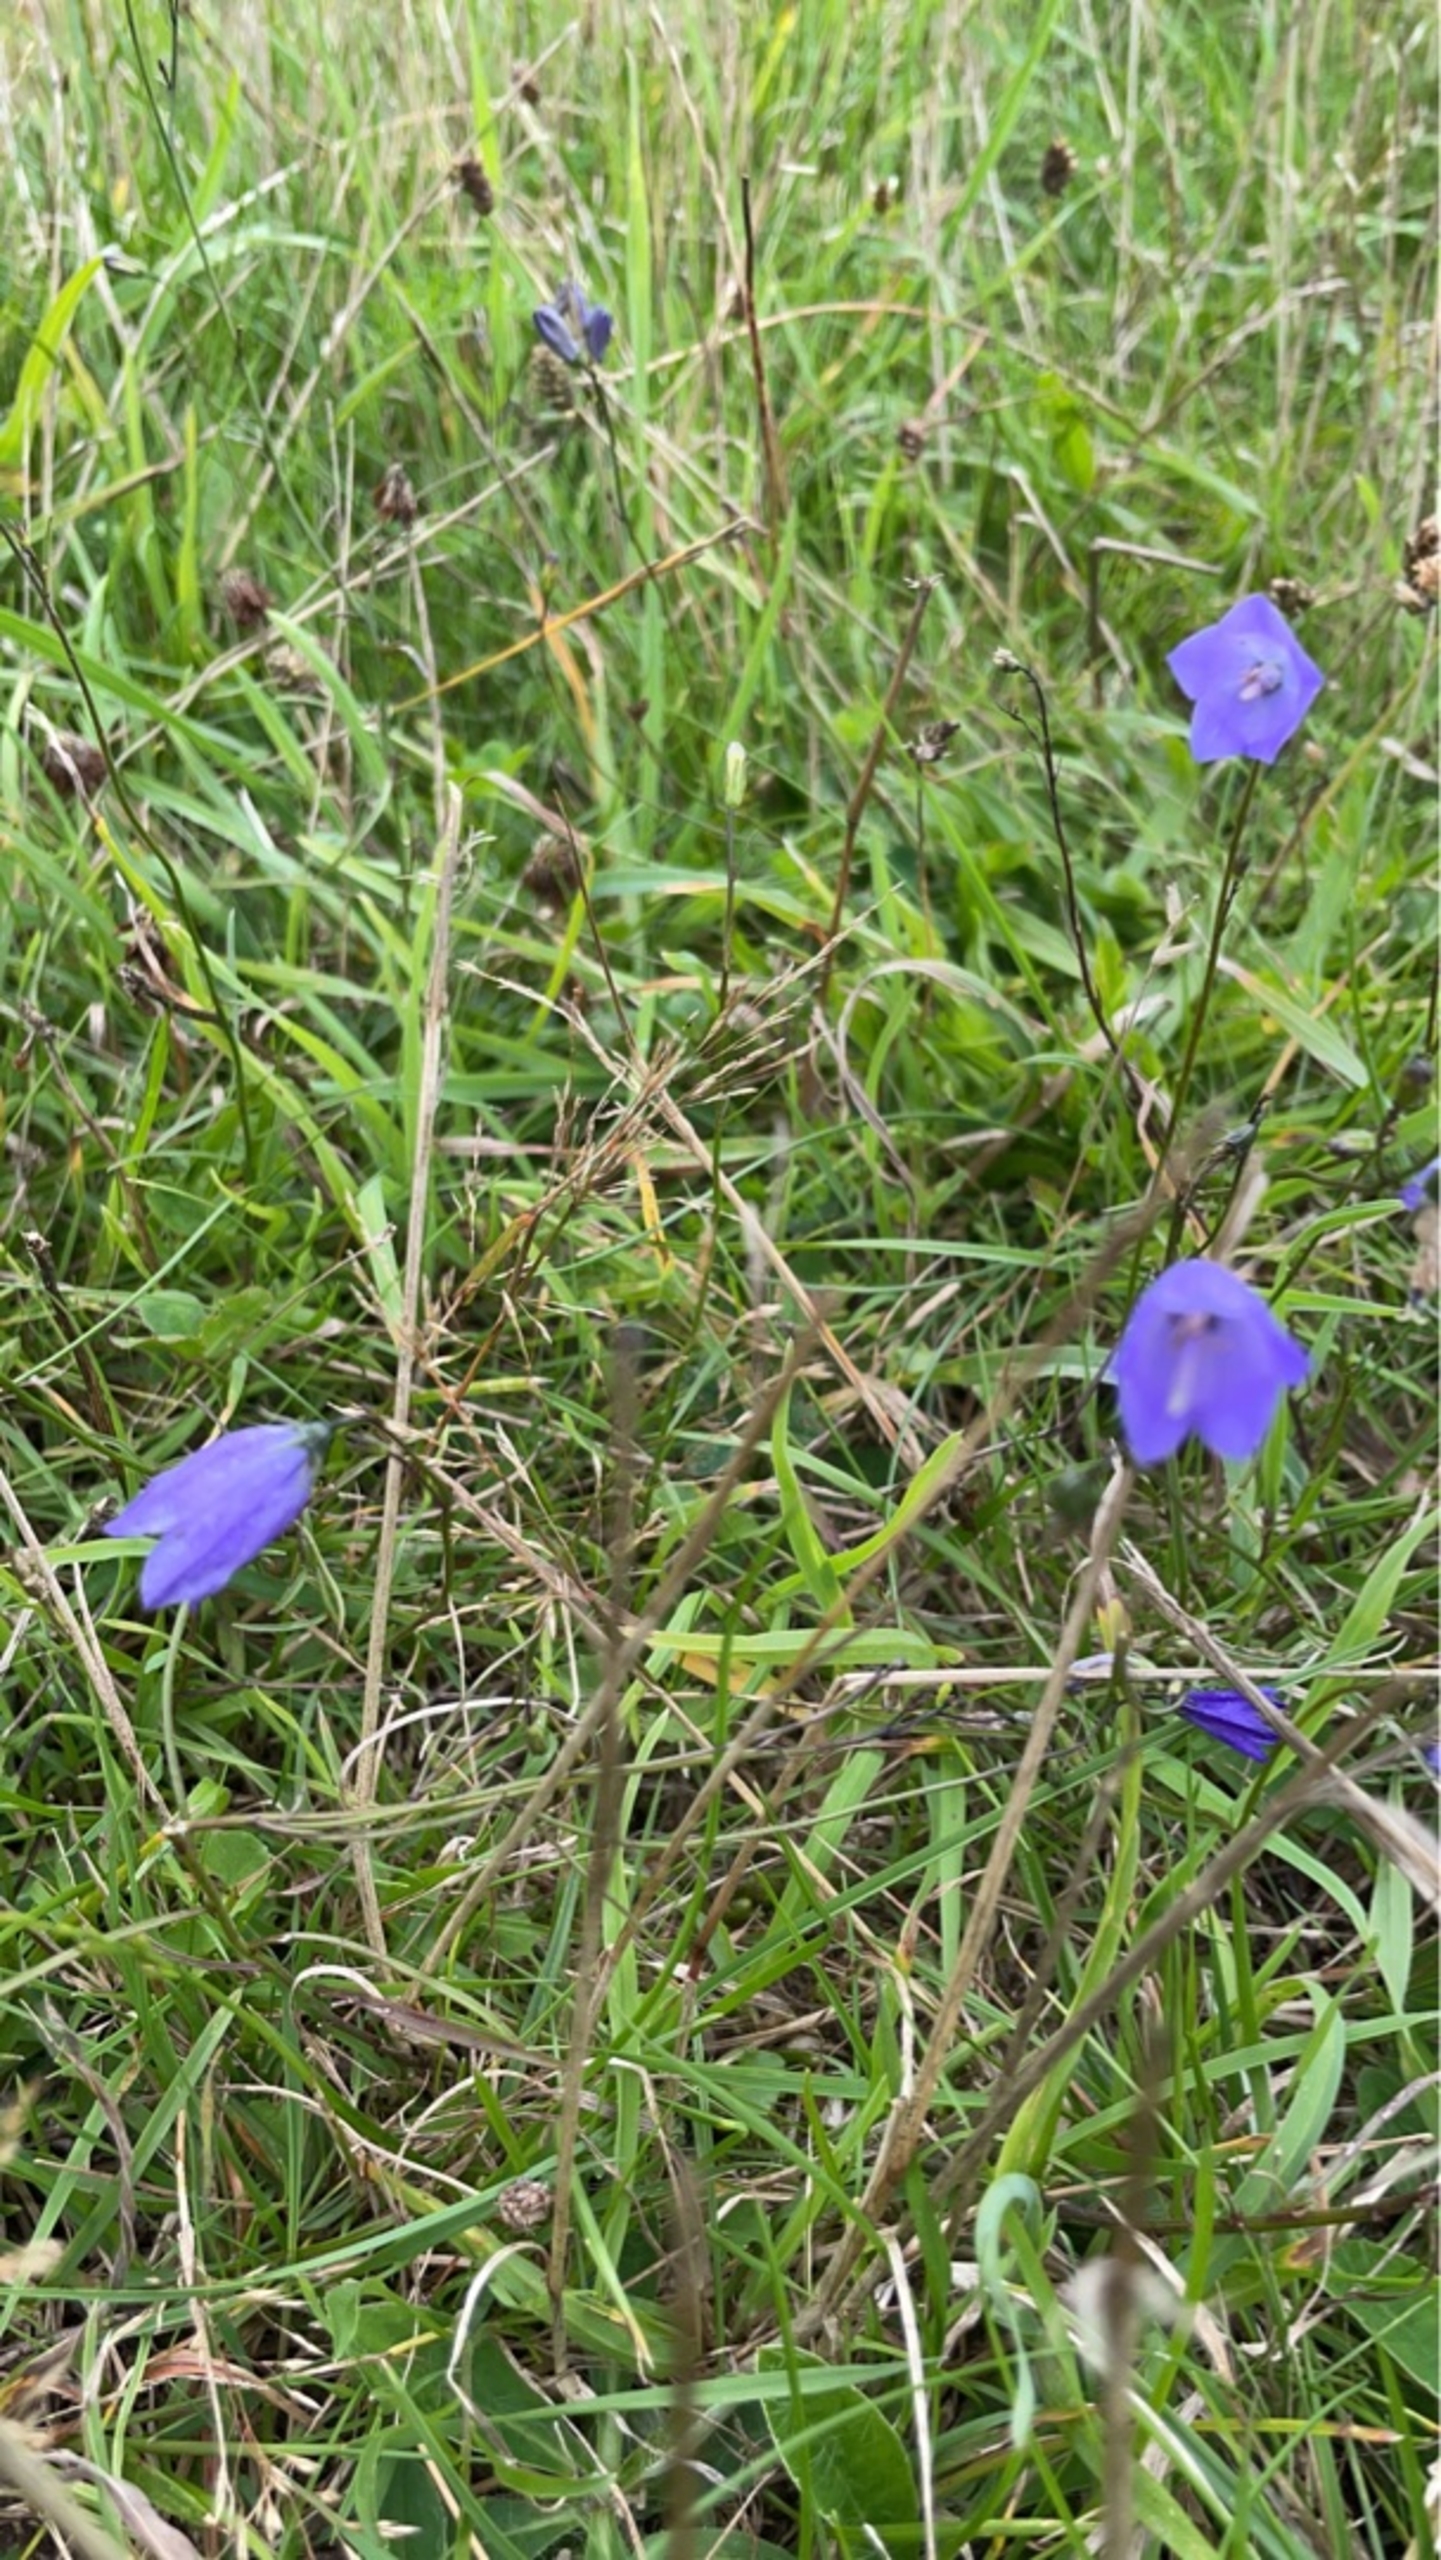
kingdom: Plantae
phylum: Tracheophyta
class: Magnoliopsida
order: Asterales
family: Campanulaceae
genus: Campanula
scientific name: Campanula rotundifolia
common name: Liden klokke
